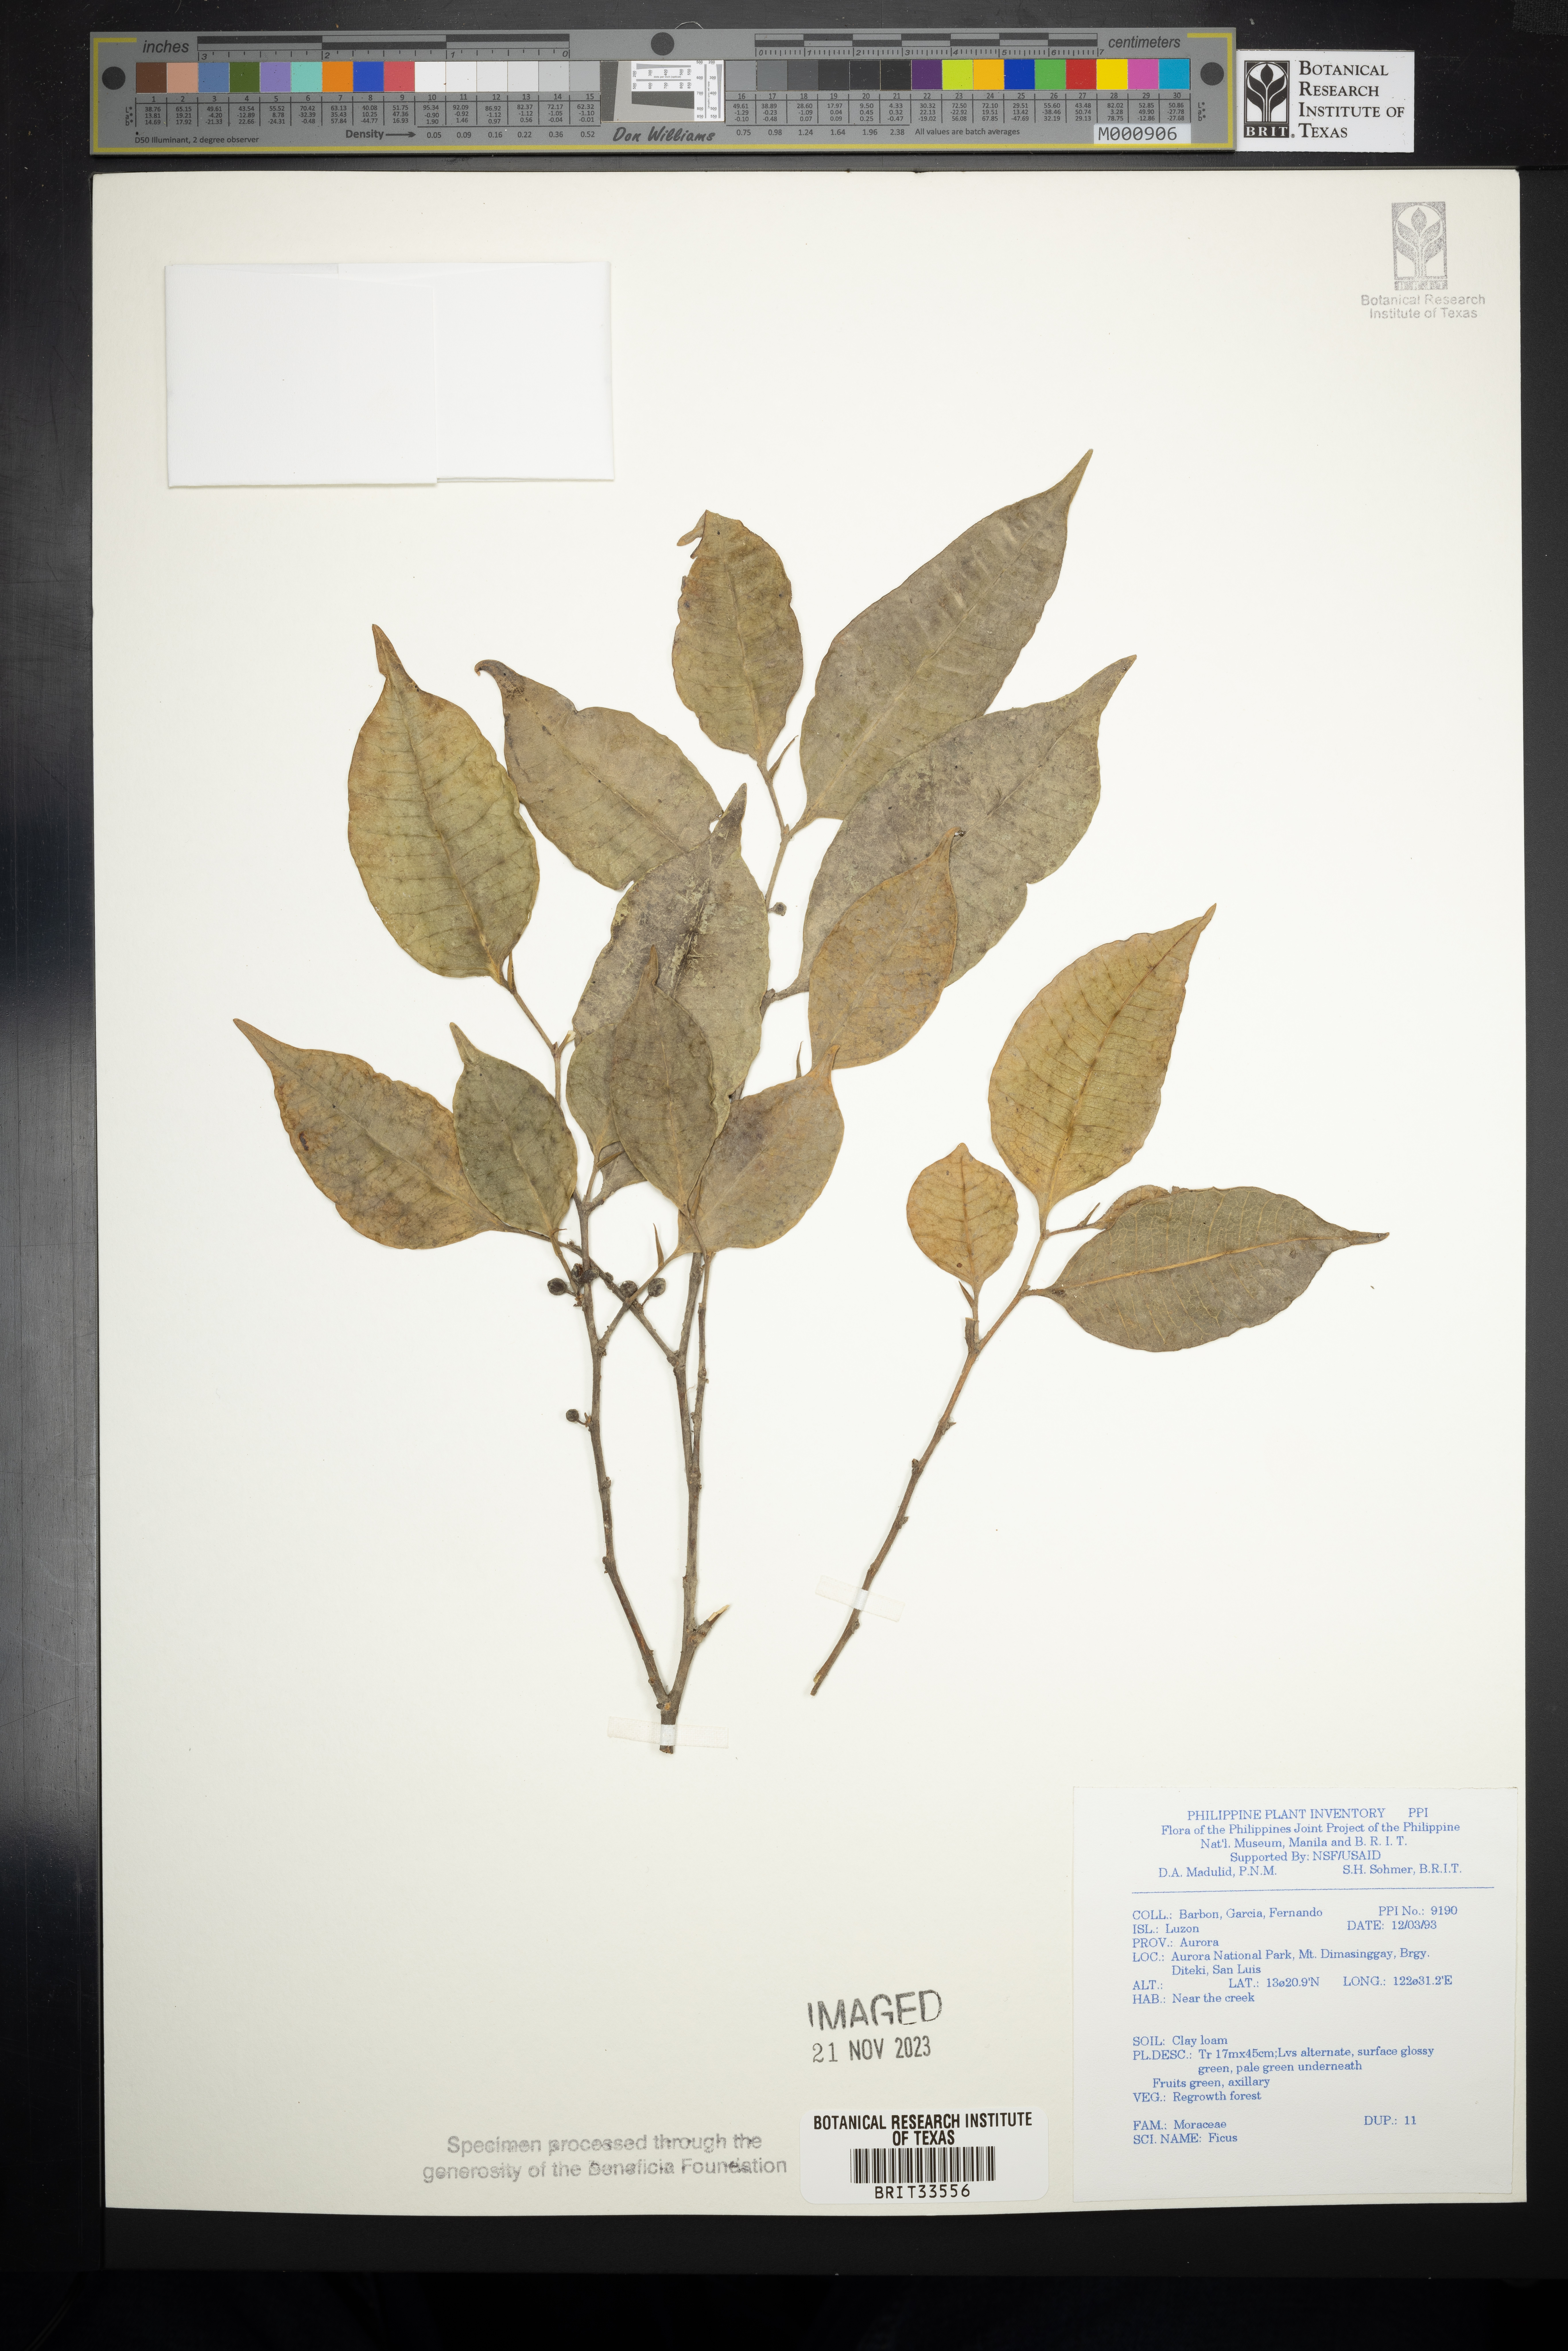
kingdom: Plantae
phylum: Tracheophyta
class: Magnoliopsida
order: Rosales
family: Moraceae
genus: Ficus
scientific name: Ficus
